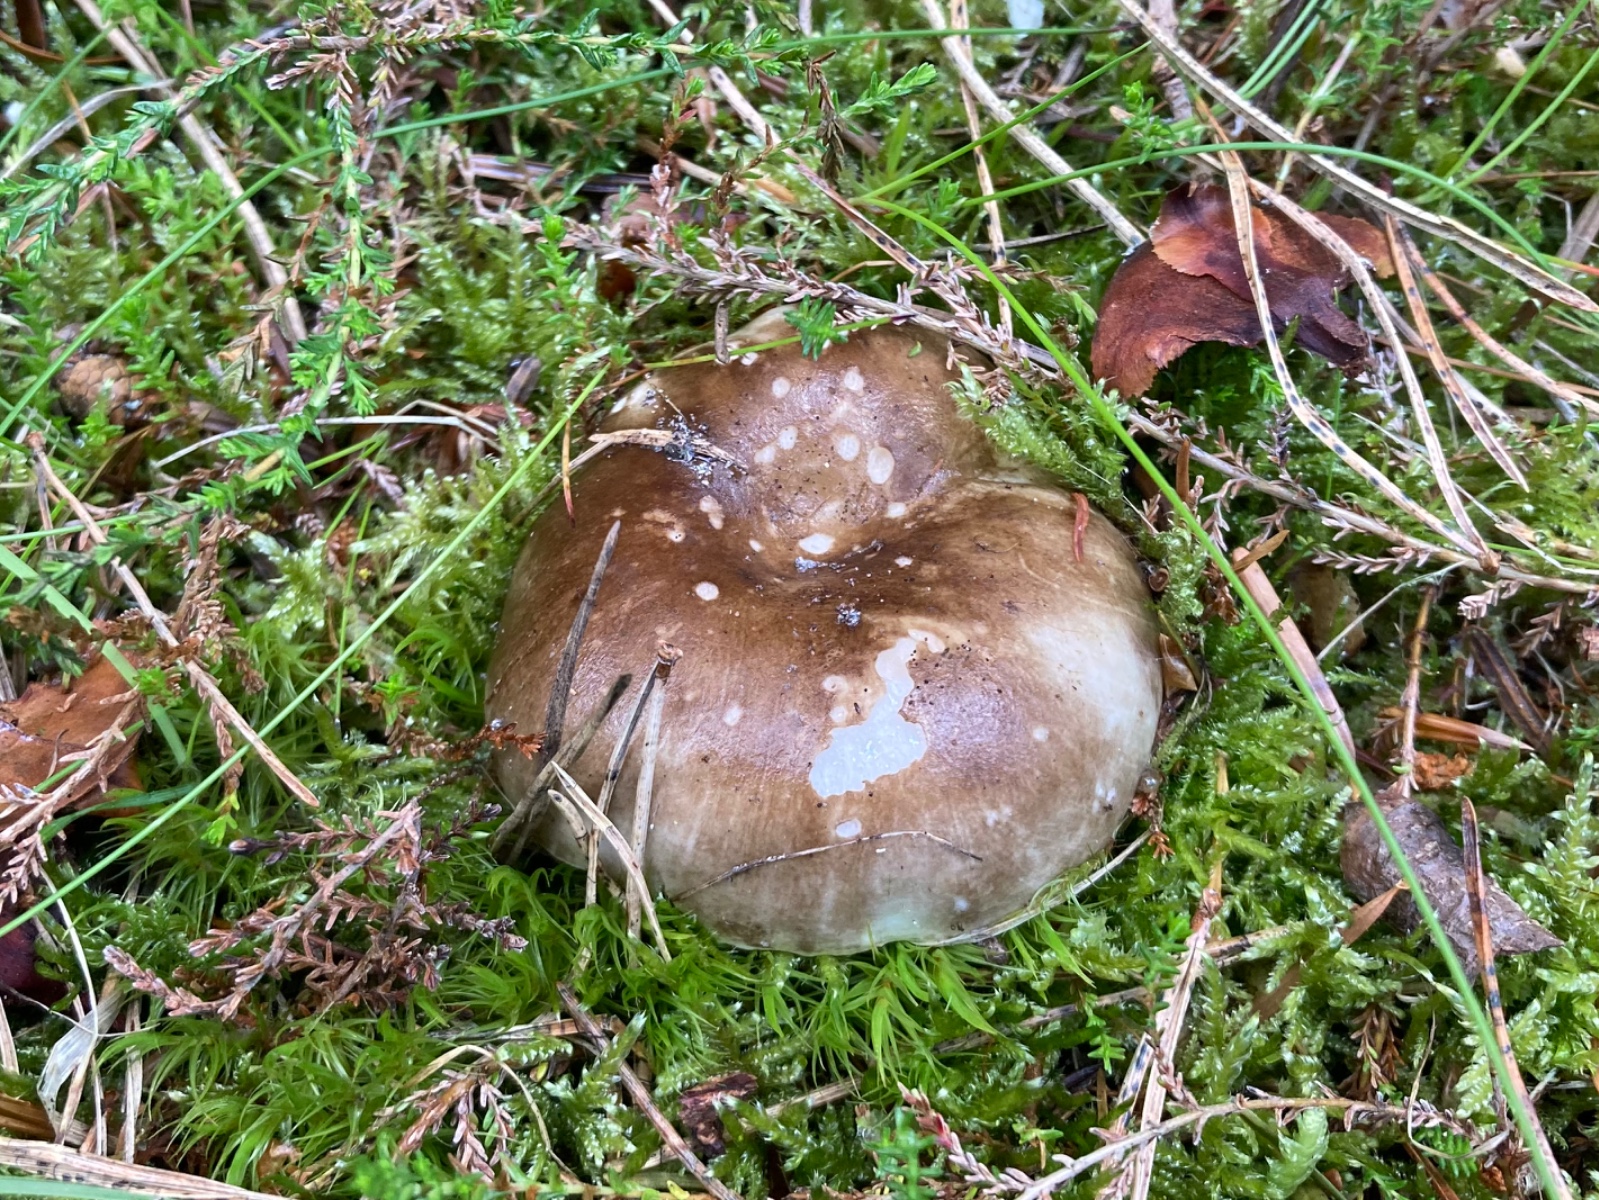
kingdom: Fungi
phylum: Basidiomycota
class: Agaricomycetes
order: Russulales
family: Russulaceae
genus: Russula
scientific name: Russula adusta
